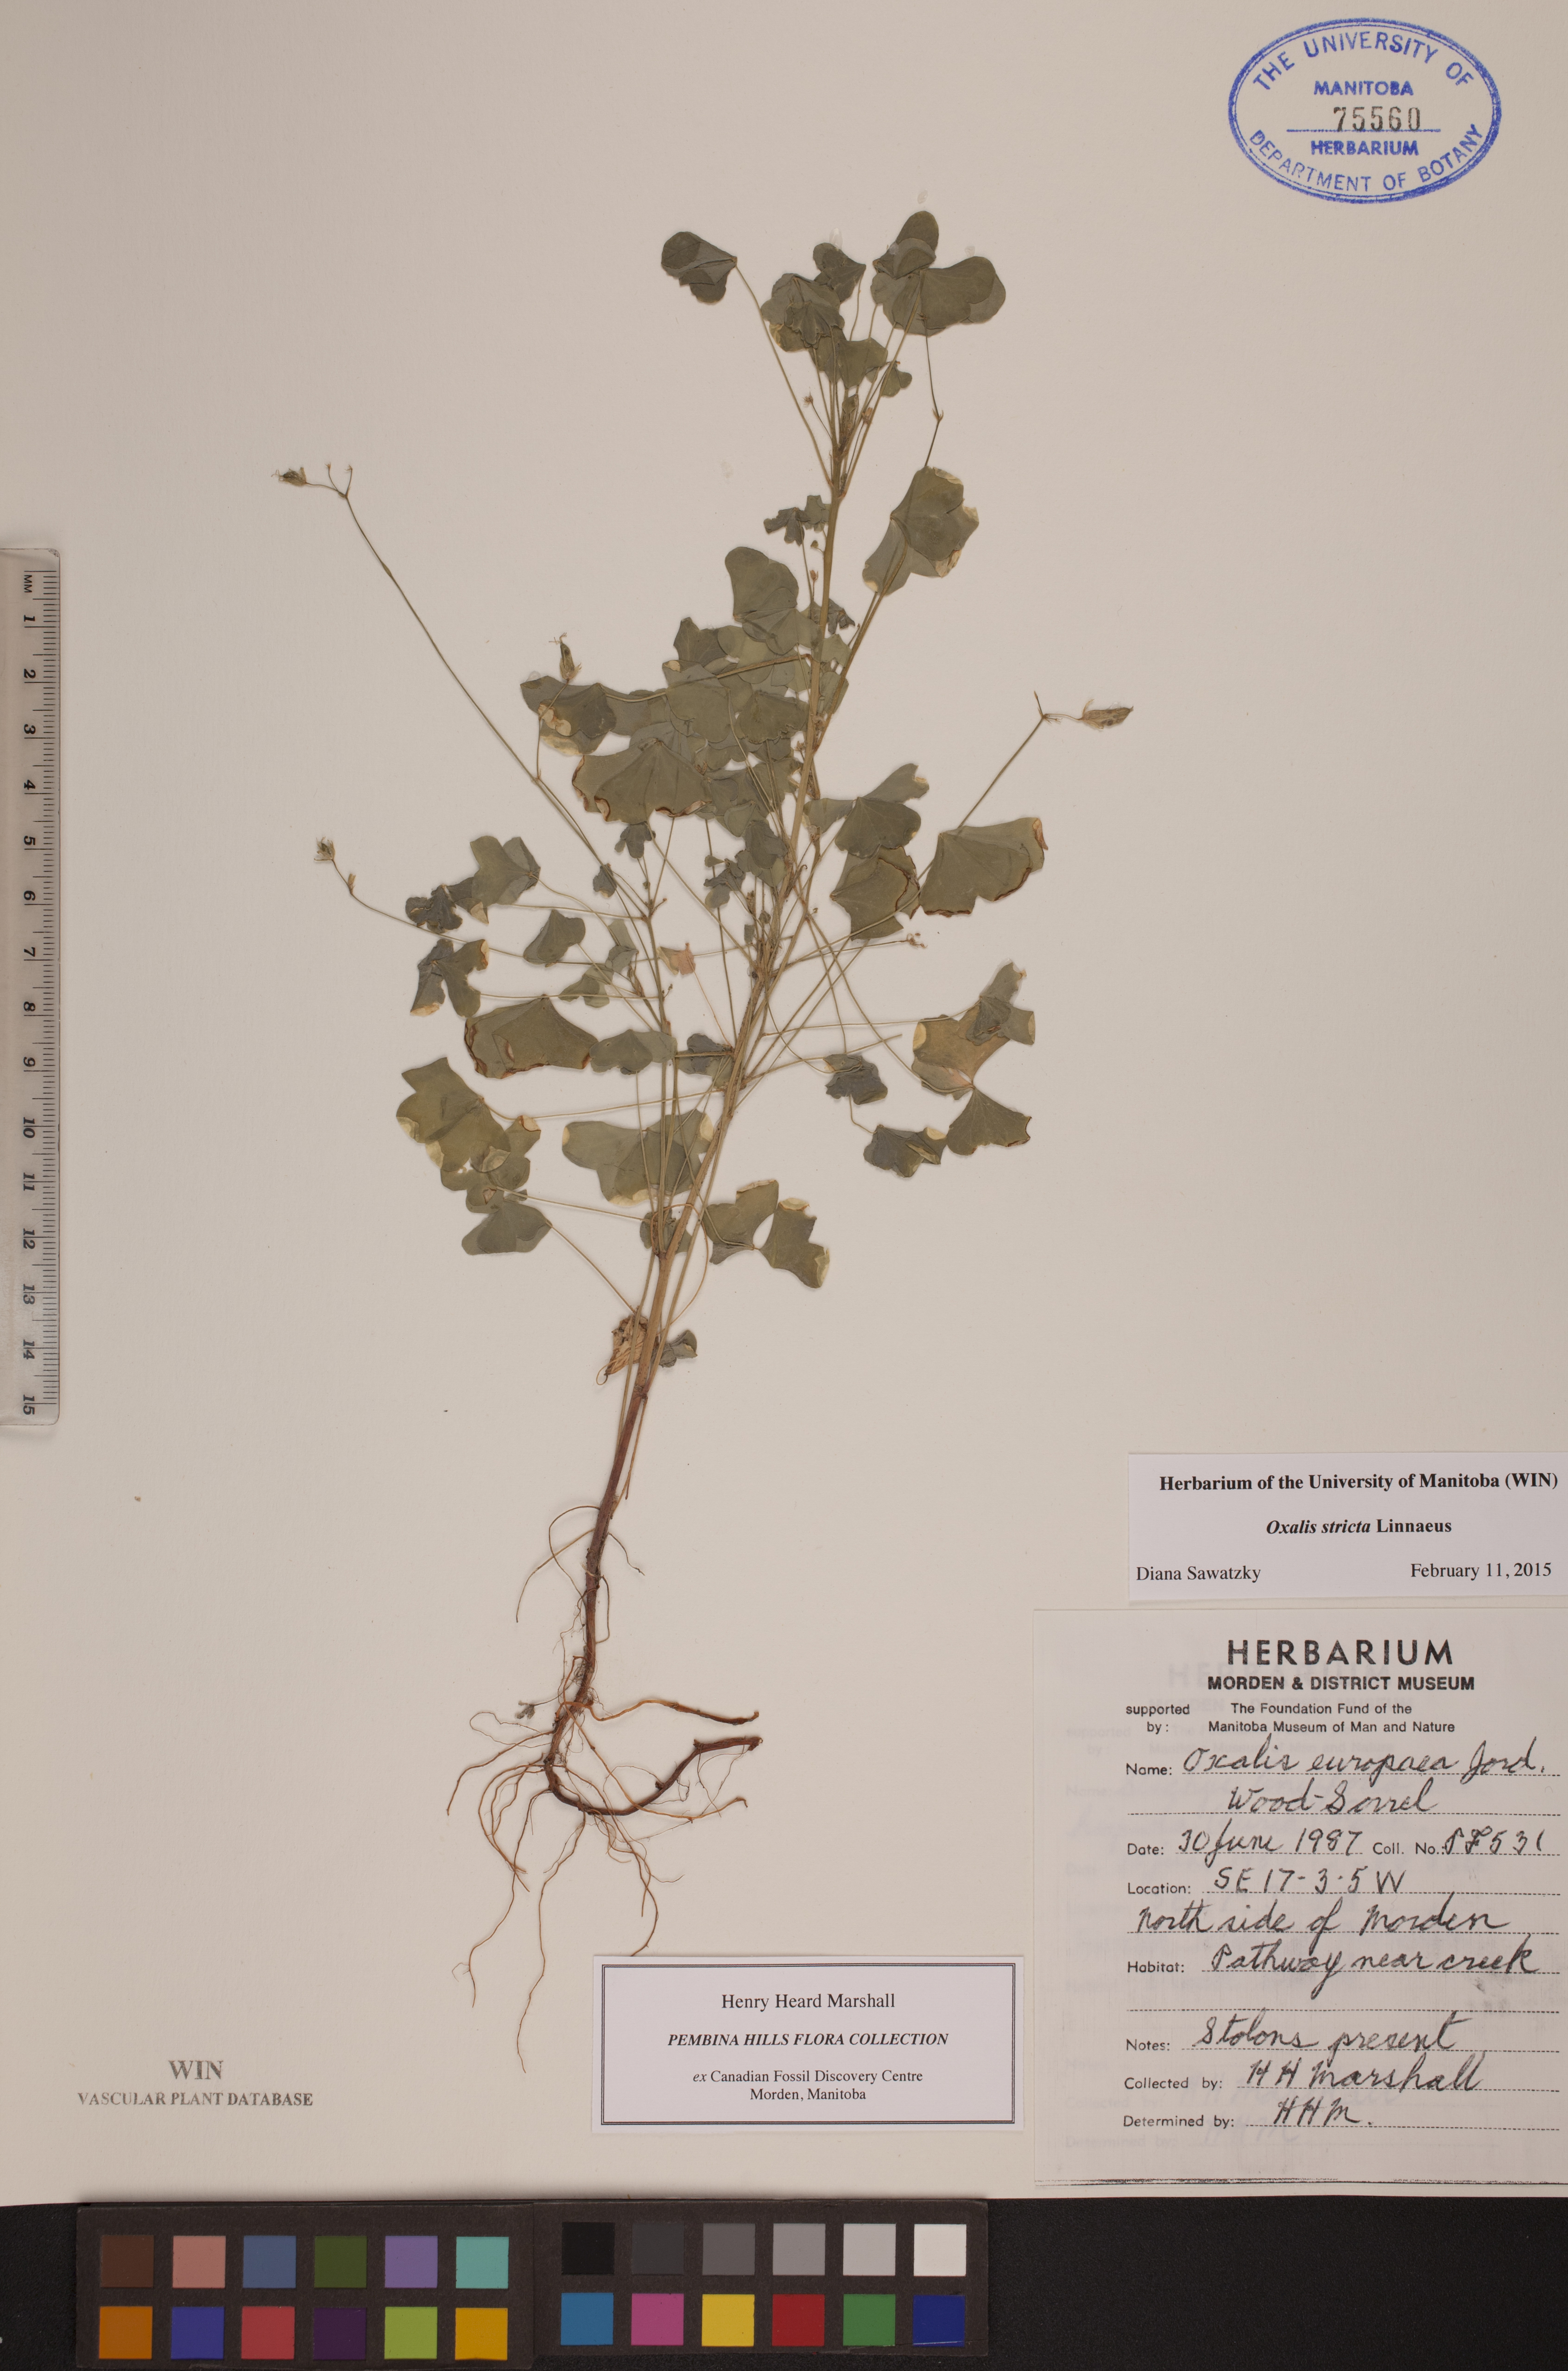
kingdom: Plantae
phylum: Tracheophyta
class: Magnoliopsida
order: Oxalidales
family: Oxalidaceae
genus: Oxalis
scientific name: Oxalis stricta
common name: Upright yellow-sorrel
